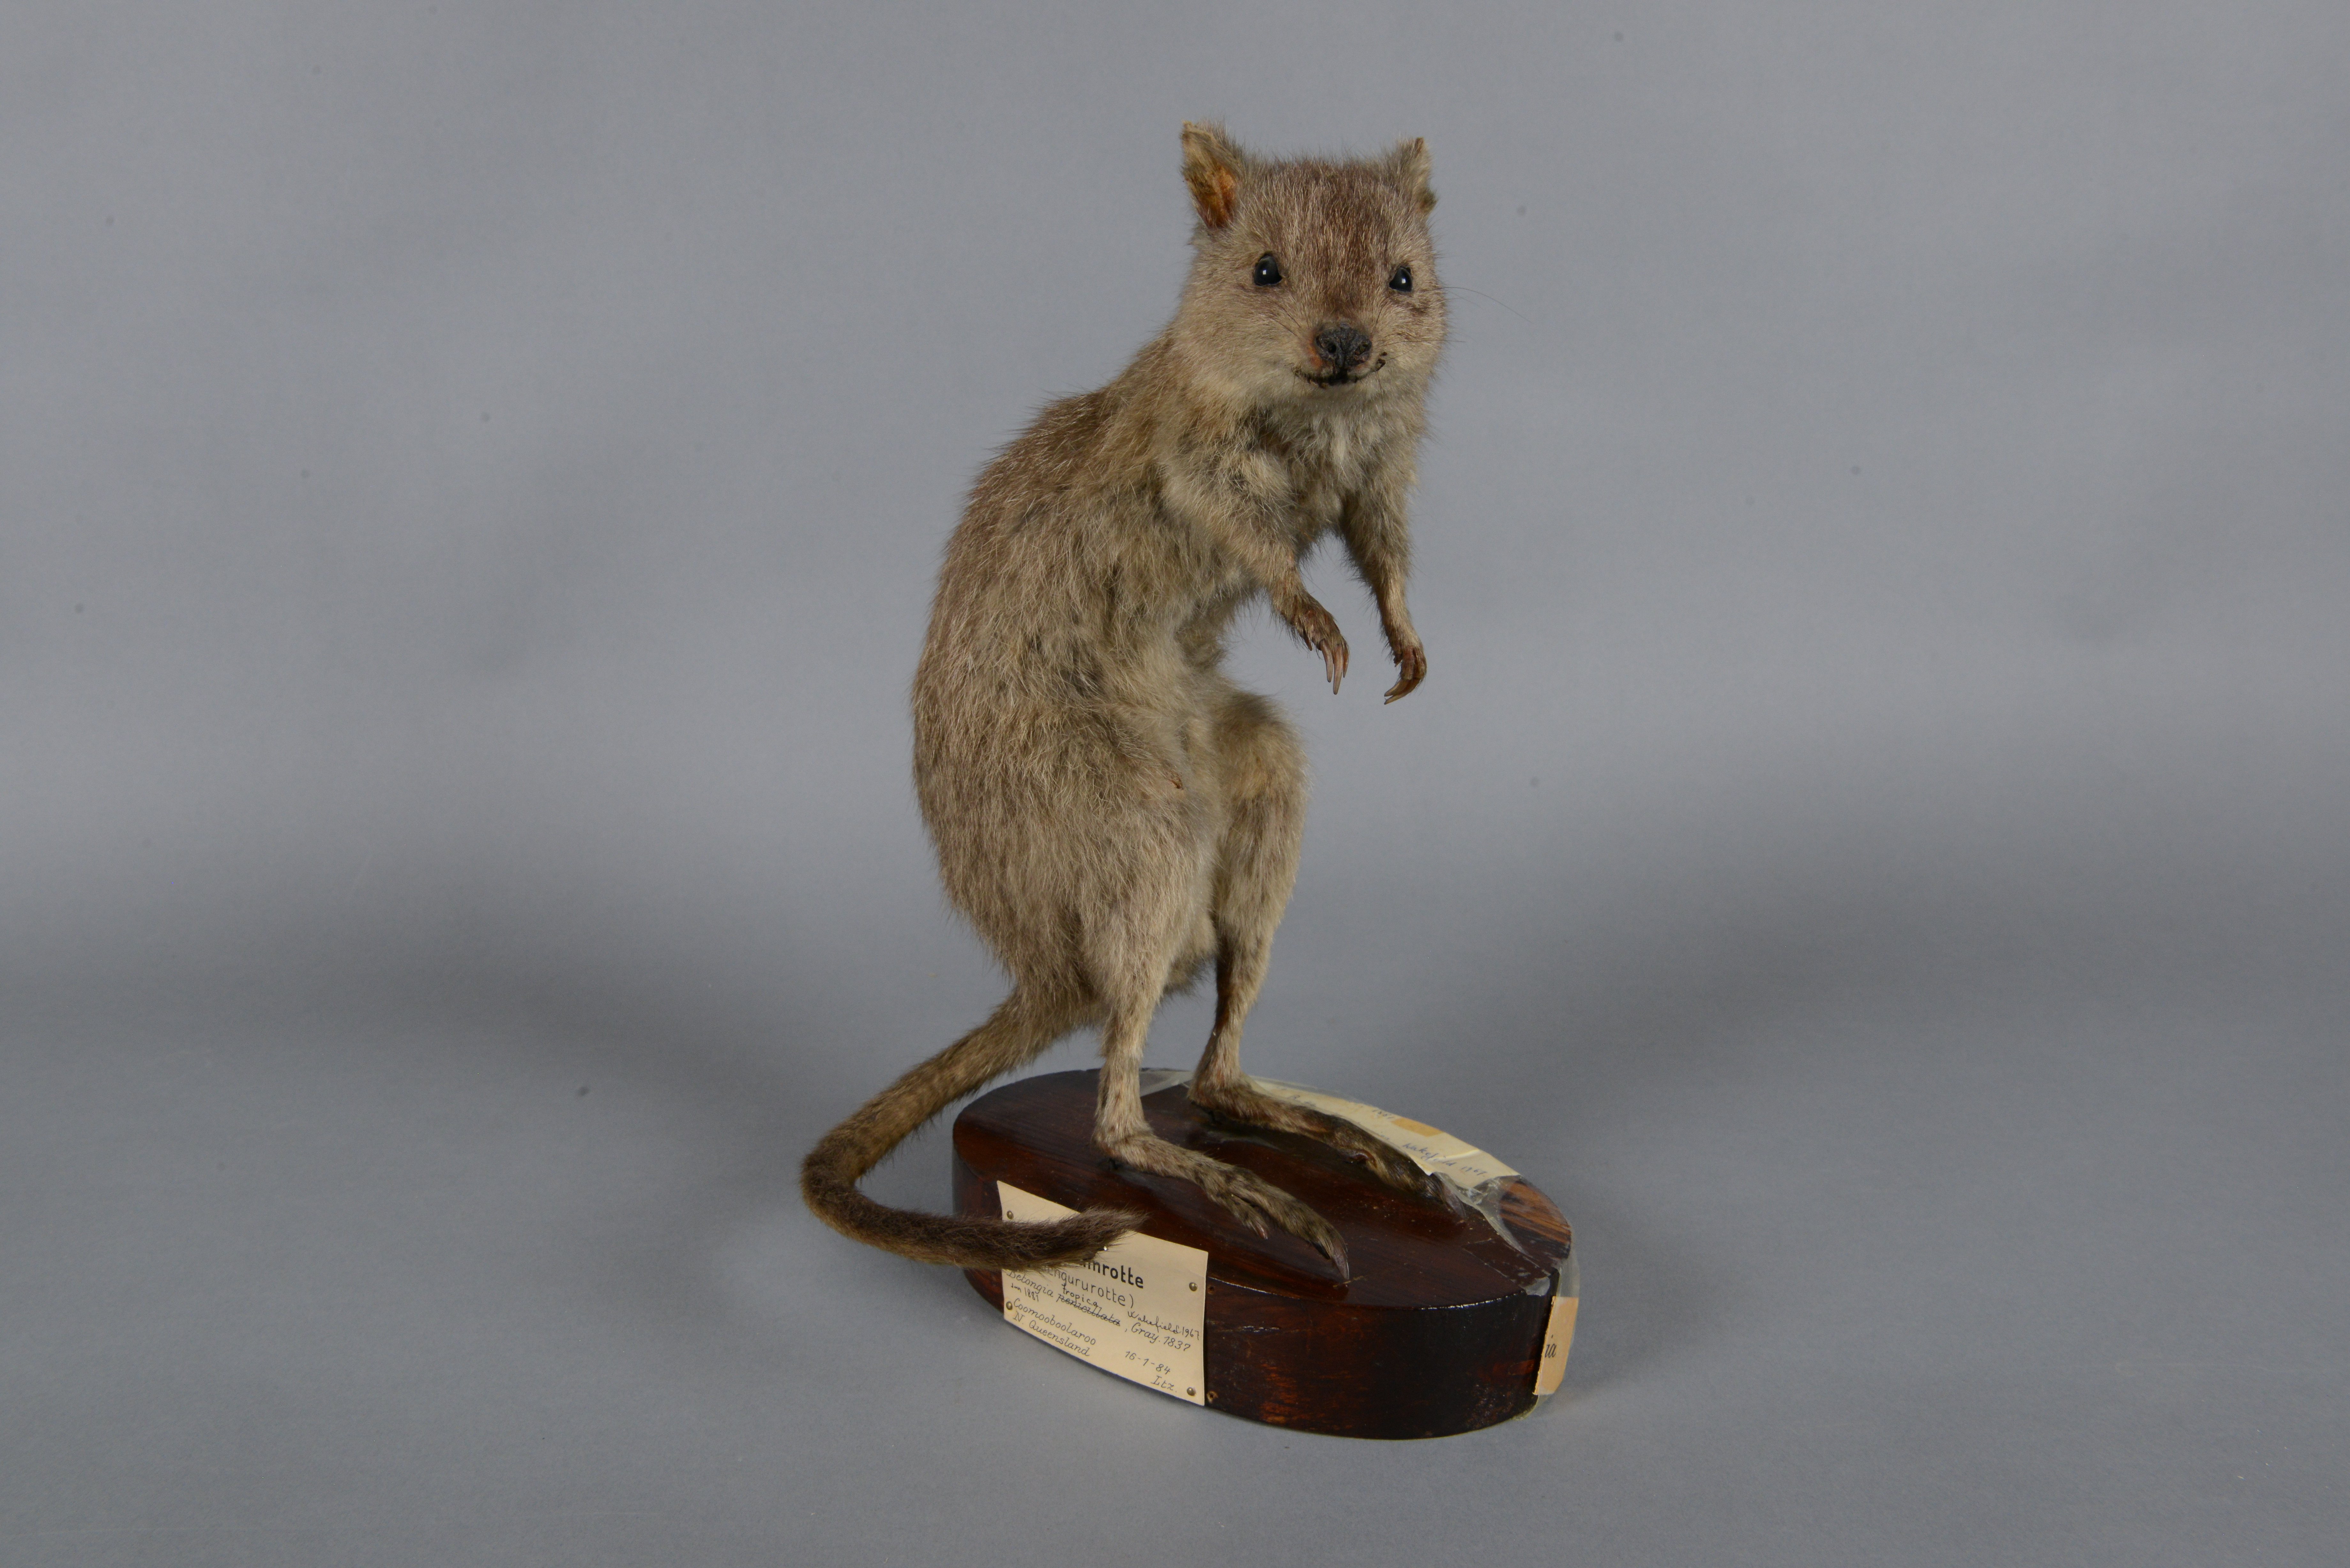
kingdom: Animalia
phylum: Chordata
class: Mammalia
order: Diprotodontia
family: Potoroidae
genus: Bettongia
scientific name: Bettongia tropica
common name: Northern bettong
